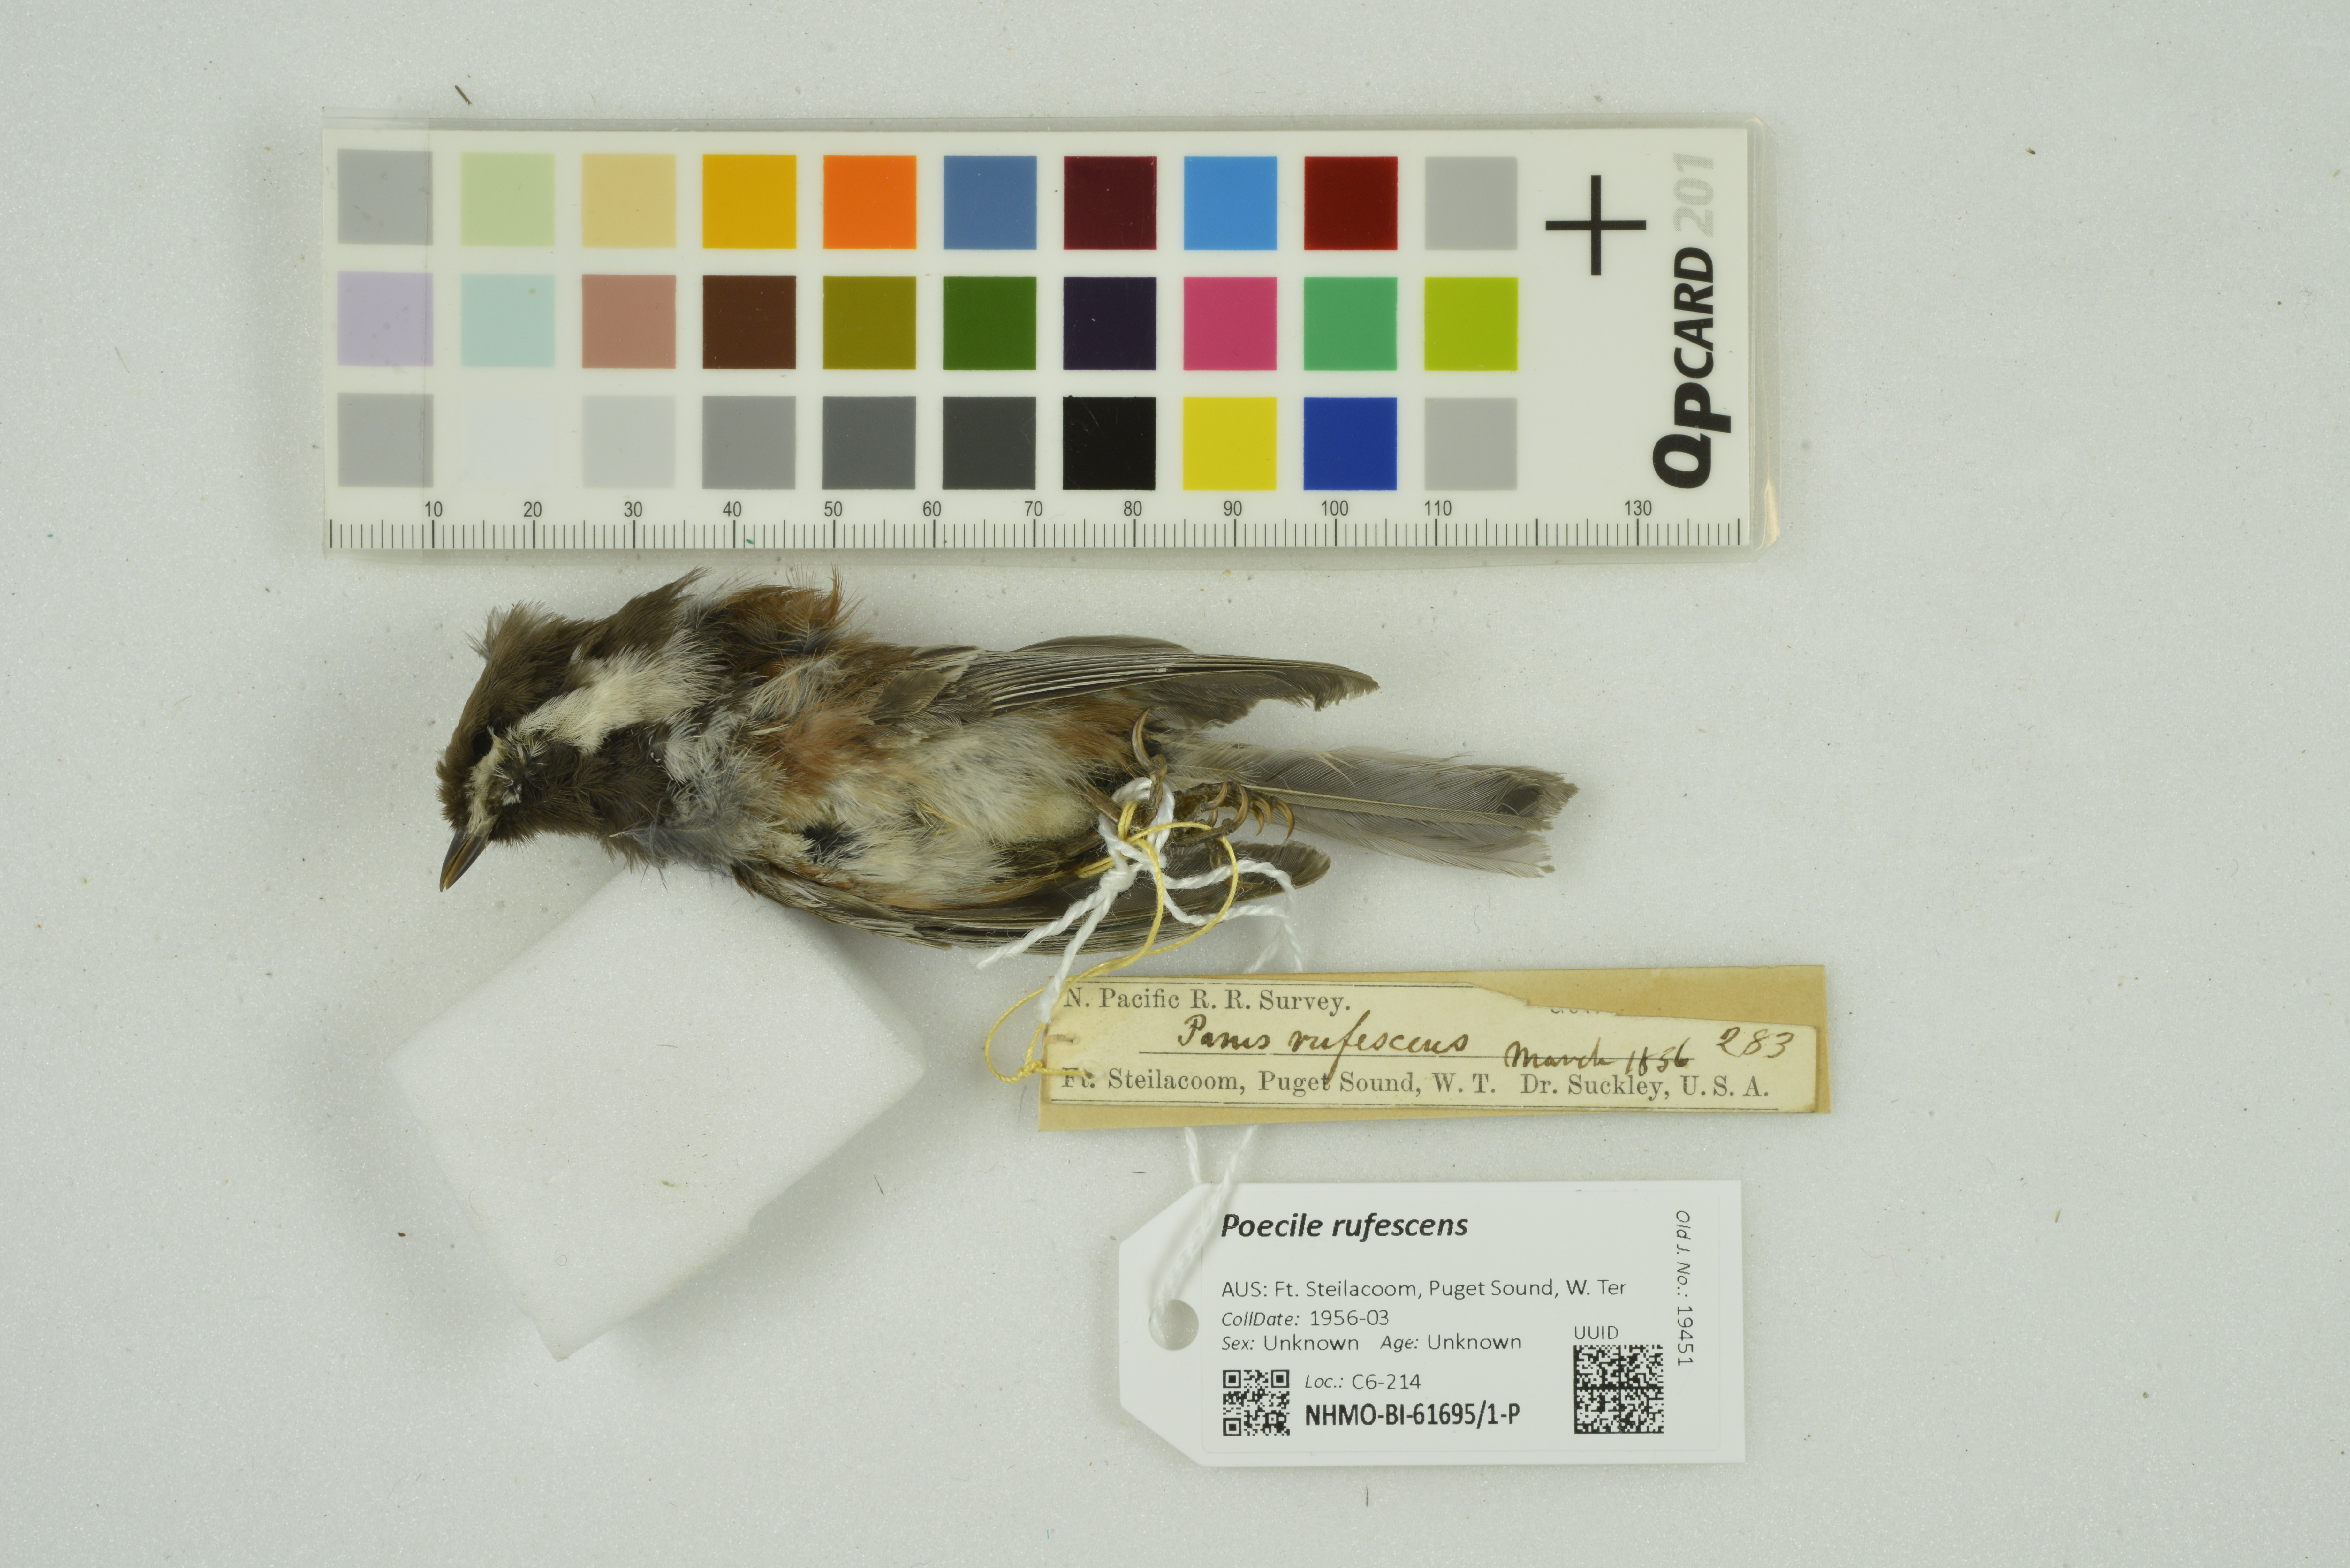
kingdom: Animalia
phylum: Chordata
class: Aves
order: Passeriformes
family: Paridae
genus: Poecile
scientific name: Poecile rufescens
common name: Chestnut-backed chickadee
